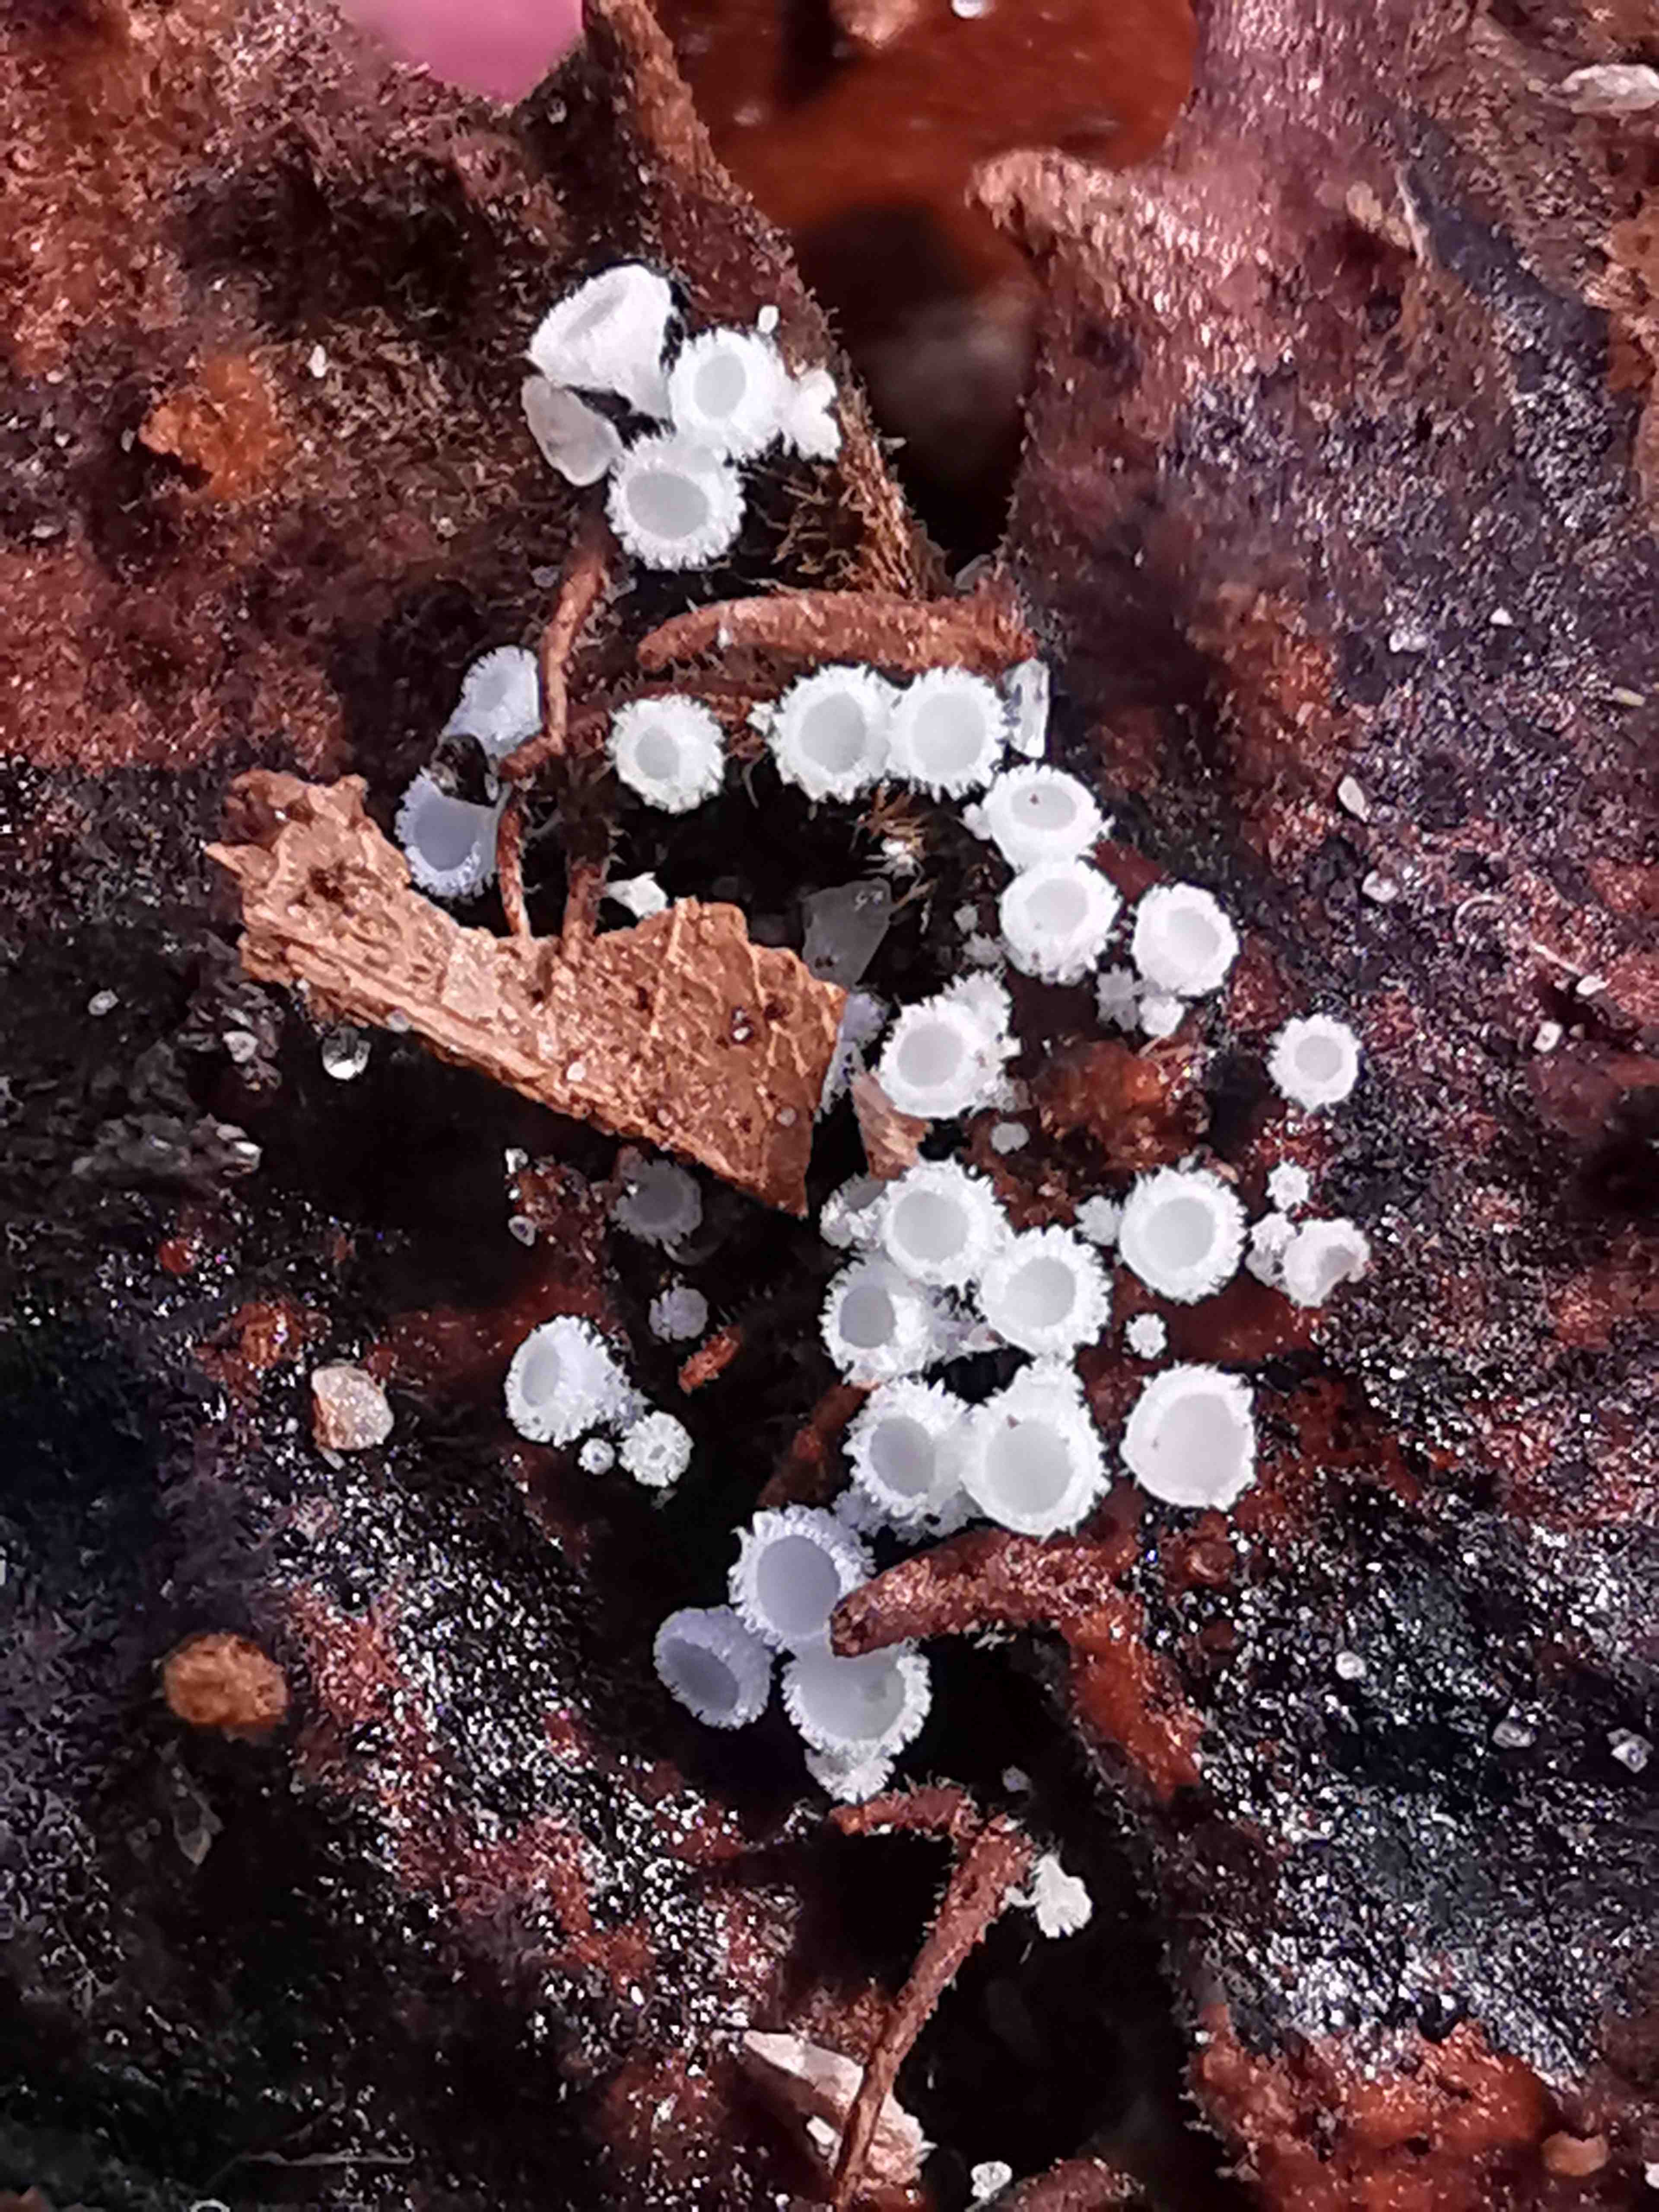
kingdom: Fungi
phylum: Ascomycota
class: Leotiomycetes
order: Helotiales
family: Lachnaceae
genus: Lachnum
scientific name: Lachnum virgineum
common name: jomfru-frynseskive
